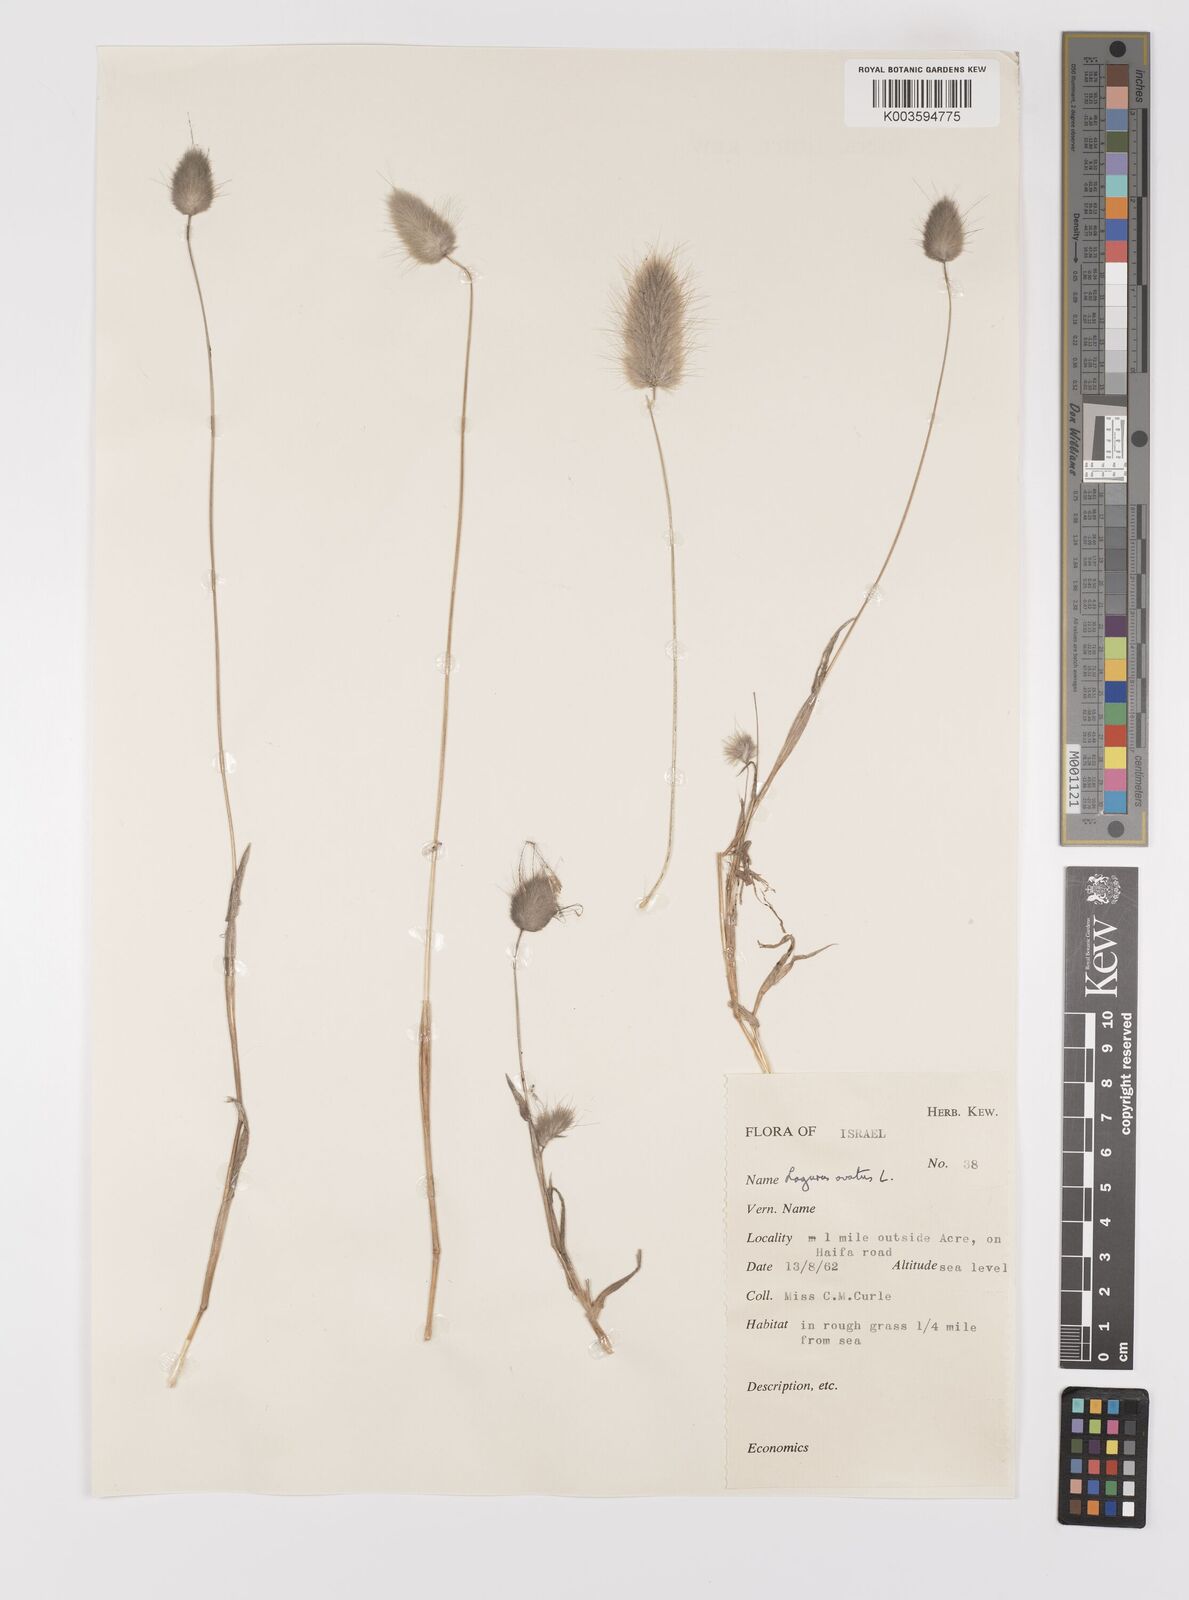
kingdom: Plantae
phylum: Tracheophyta
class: Liliopsida
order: Poales
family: Poaceae
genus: Lagurus
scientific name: Lagurus ovatus
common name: Hare's-tail
